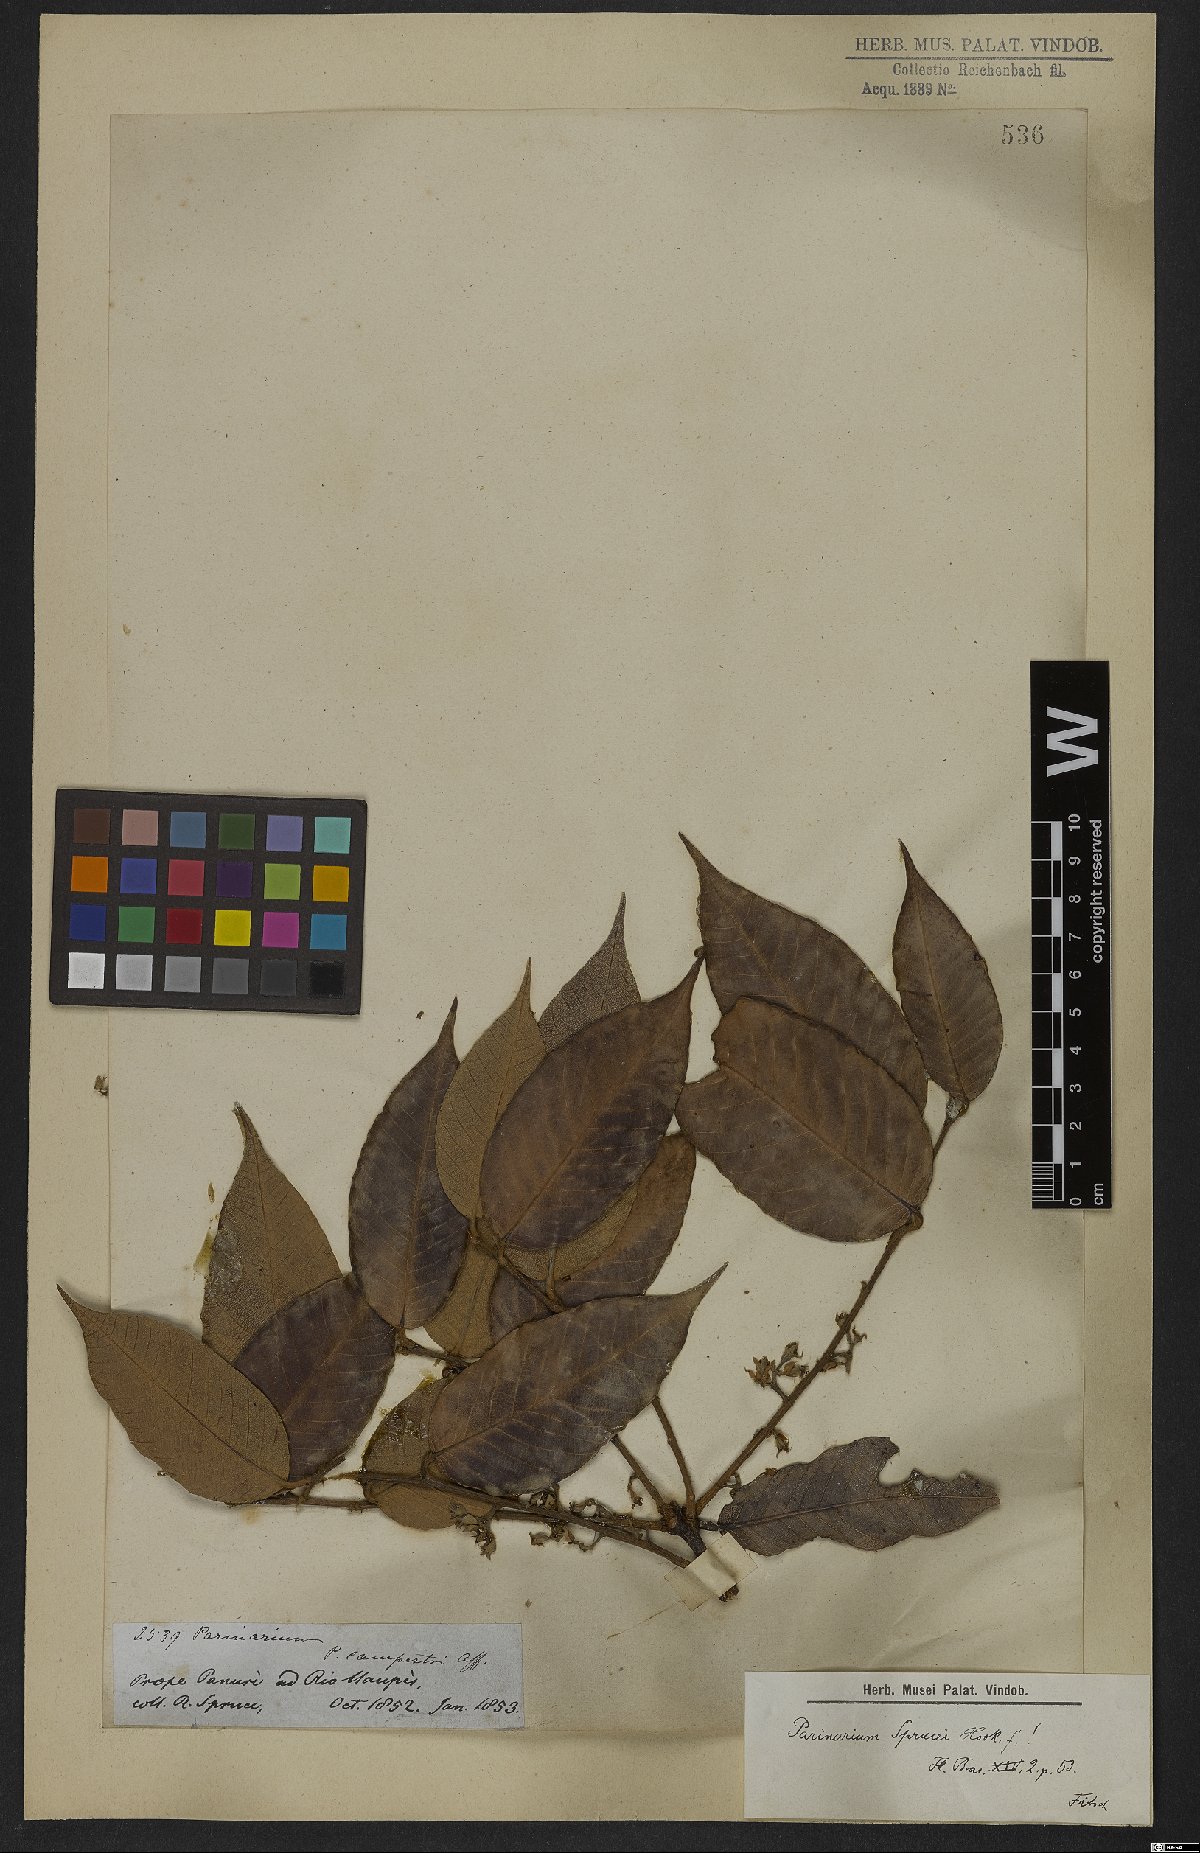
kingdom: Plantae
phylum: Tracheophyta
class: Magnoliopsida
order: Malpighiales
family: Chrysobalanaceae
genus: Parinari
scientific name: Parinari sprucei
